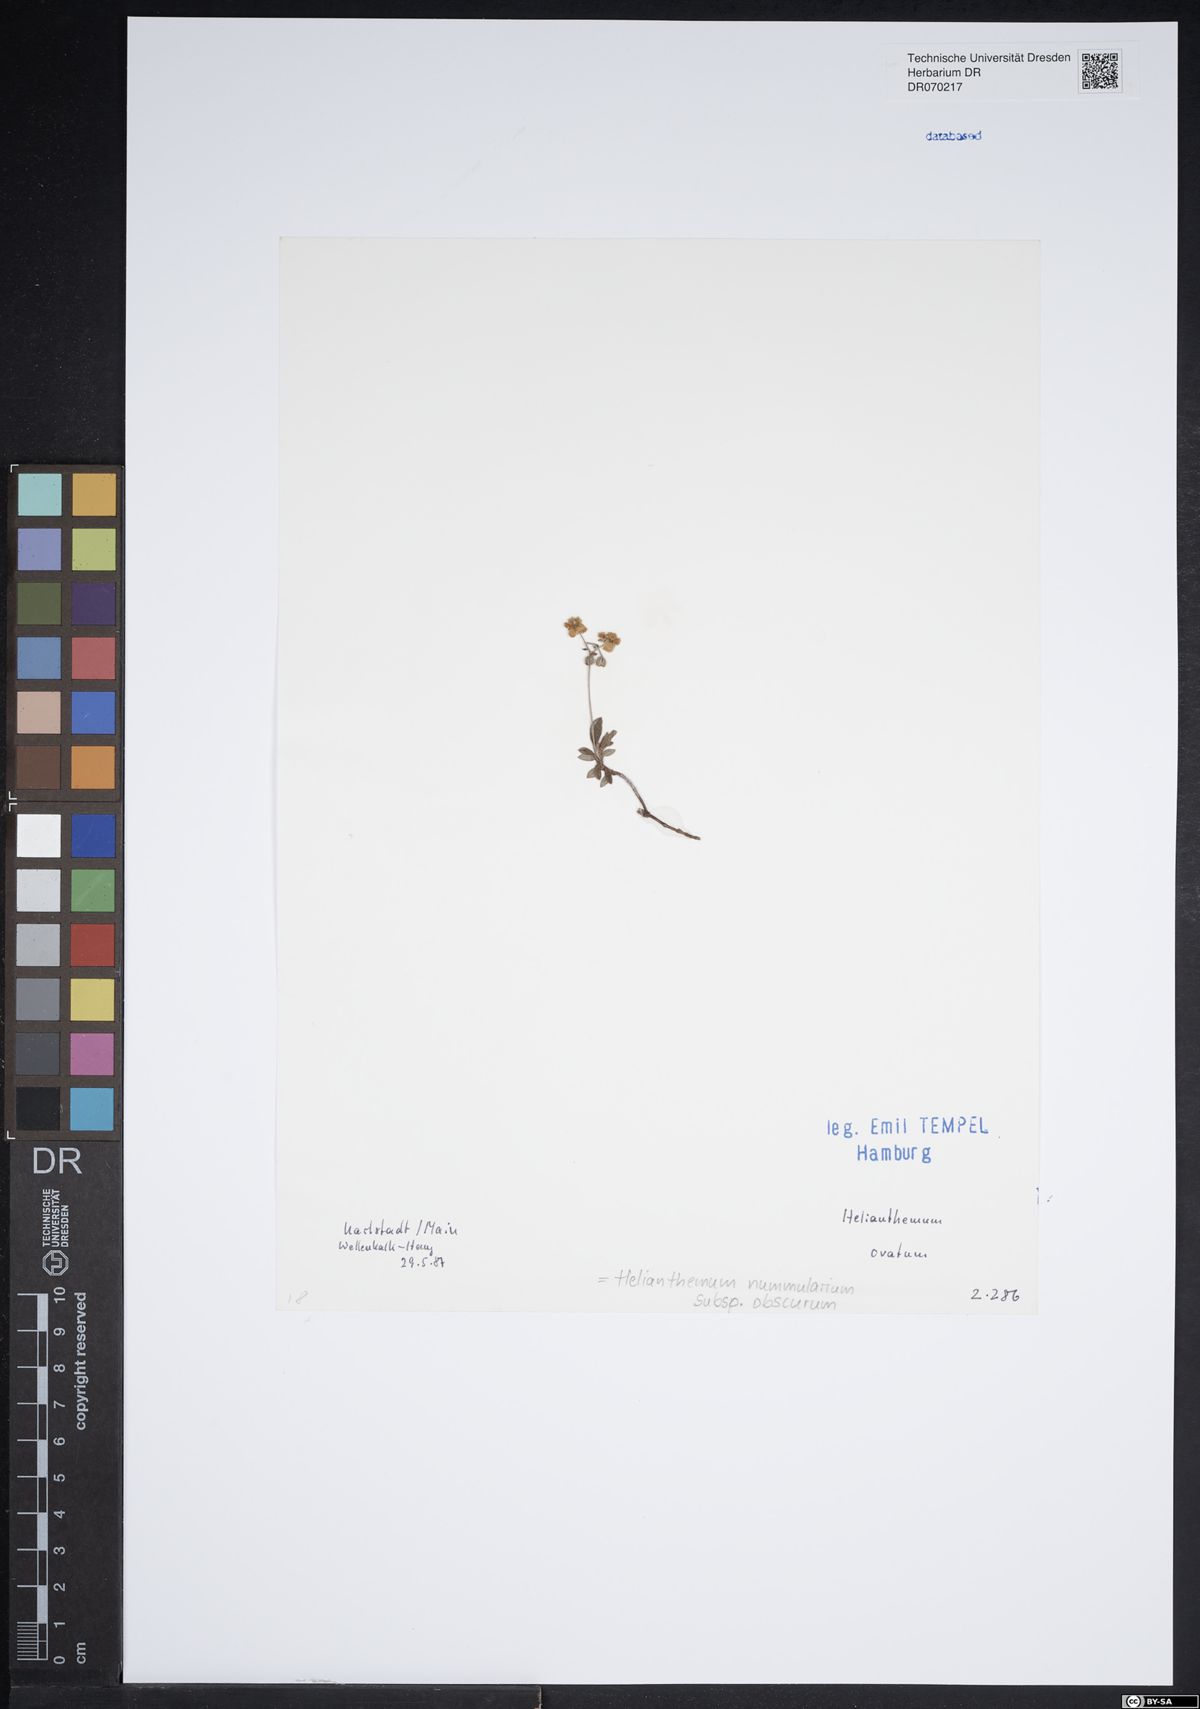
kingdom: Plantae
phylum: Tracheophyta
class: Magnoliopsida
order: Malvales
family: Cistaceae
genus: Helianthemum
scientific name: Helianthemum nummularium
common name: Common rock-rose
